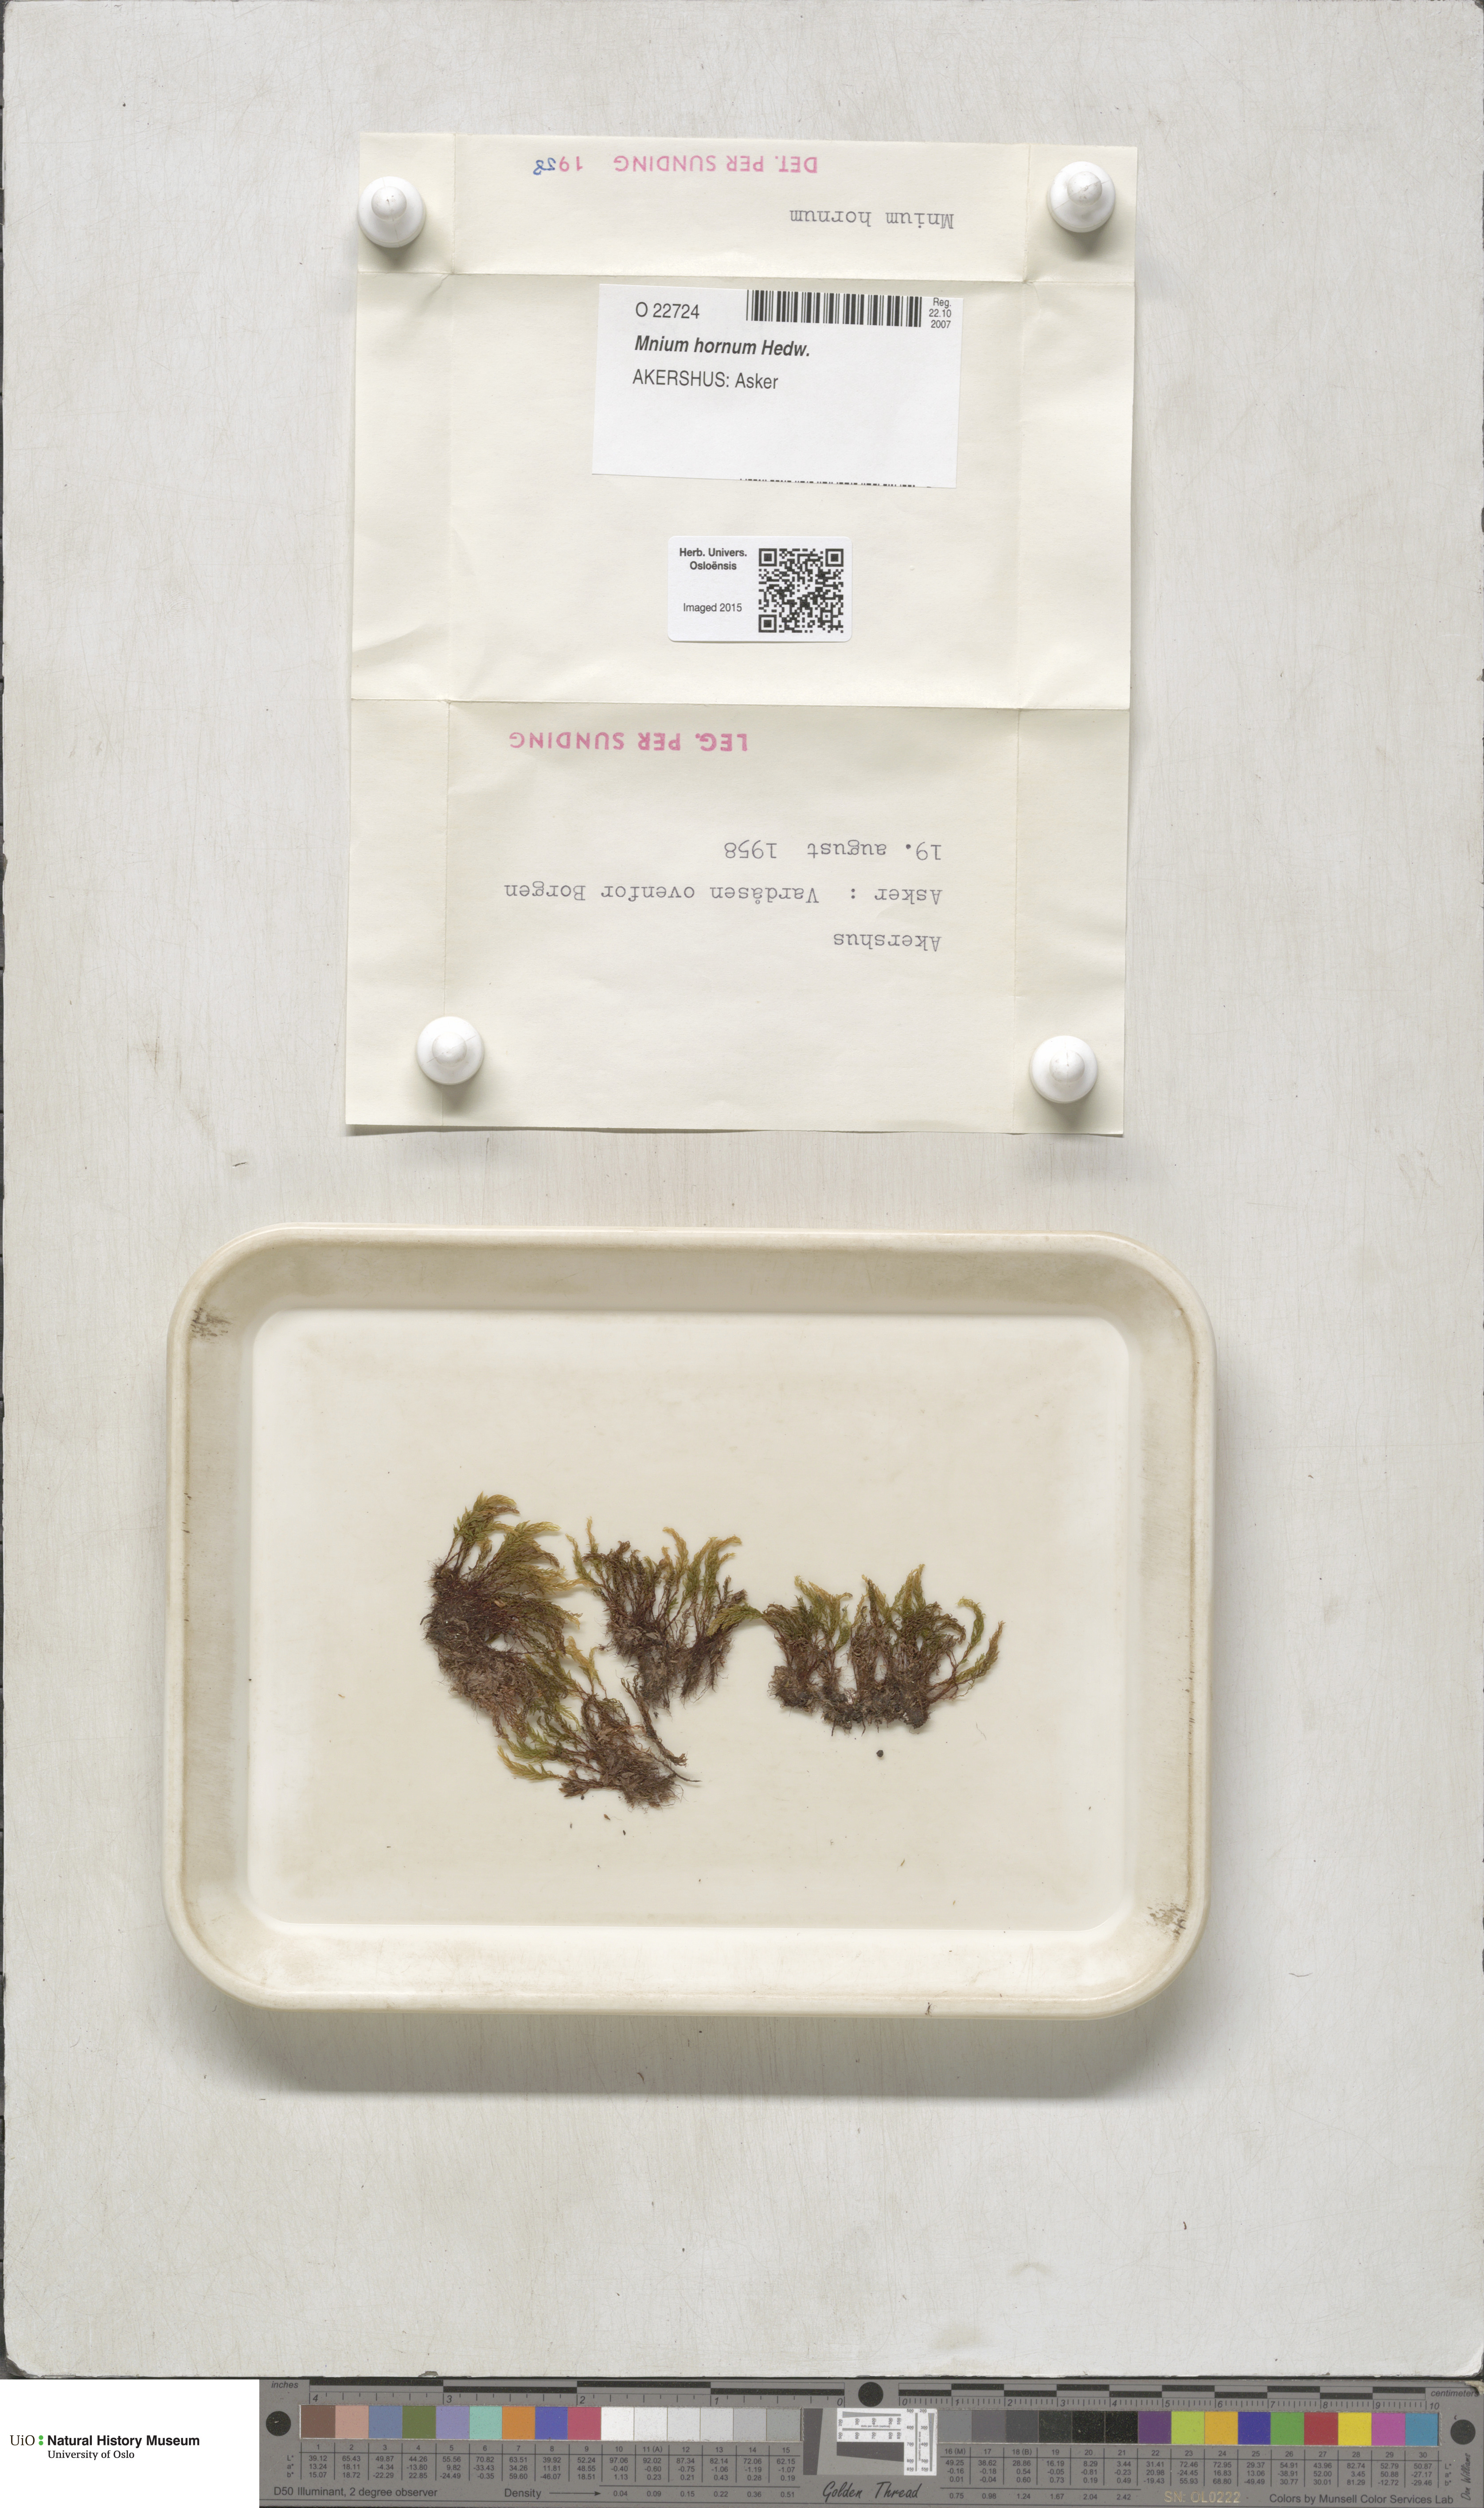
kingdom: Plantae
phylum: Bryophyta
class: Bryopsida
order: Bryales
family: Mniaceae
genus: Mnium
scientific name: Mnium hornum
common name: Swan's-neck leafy moss
